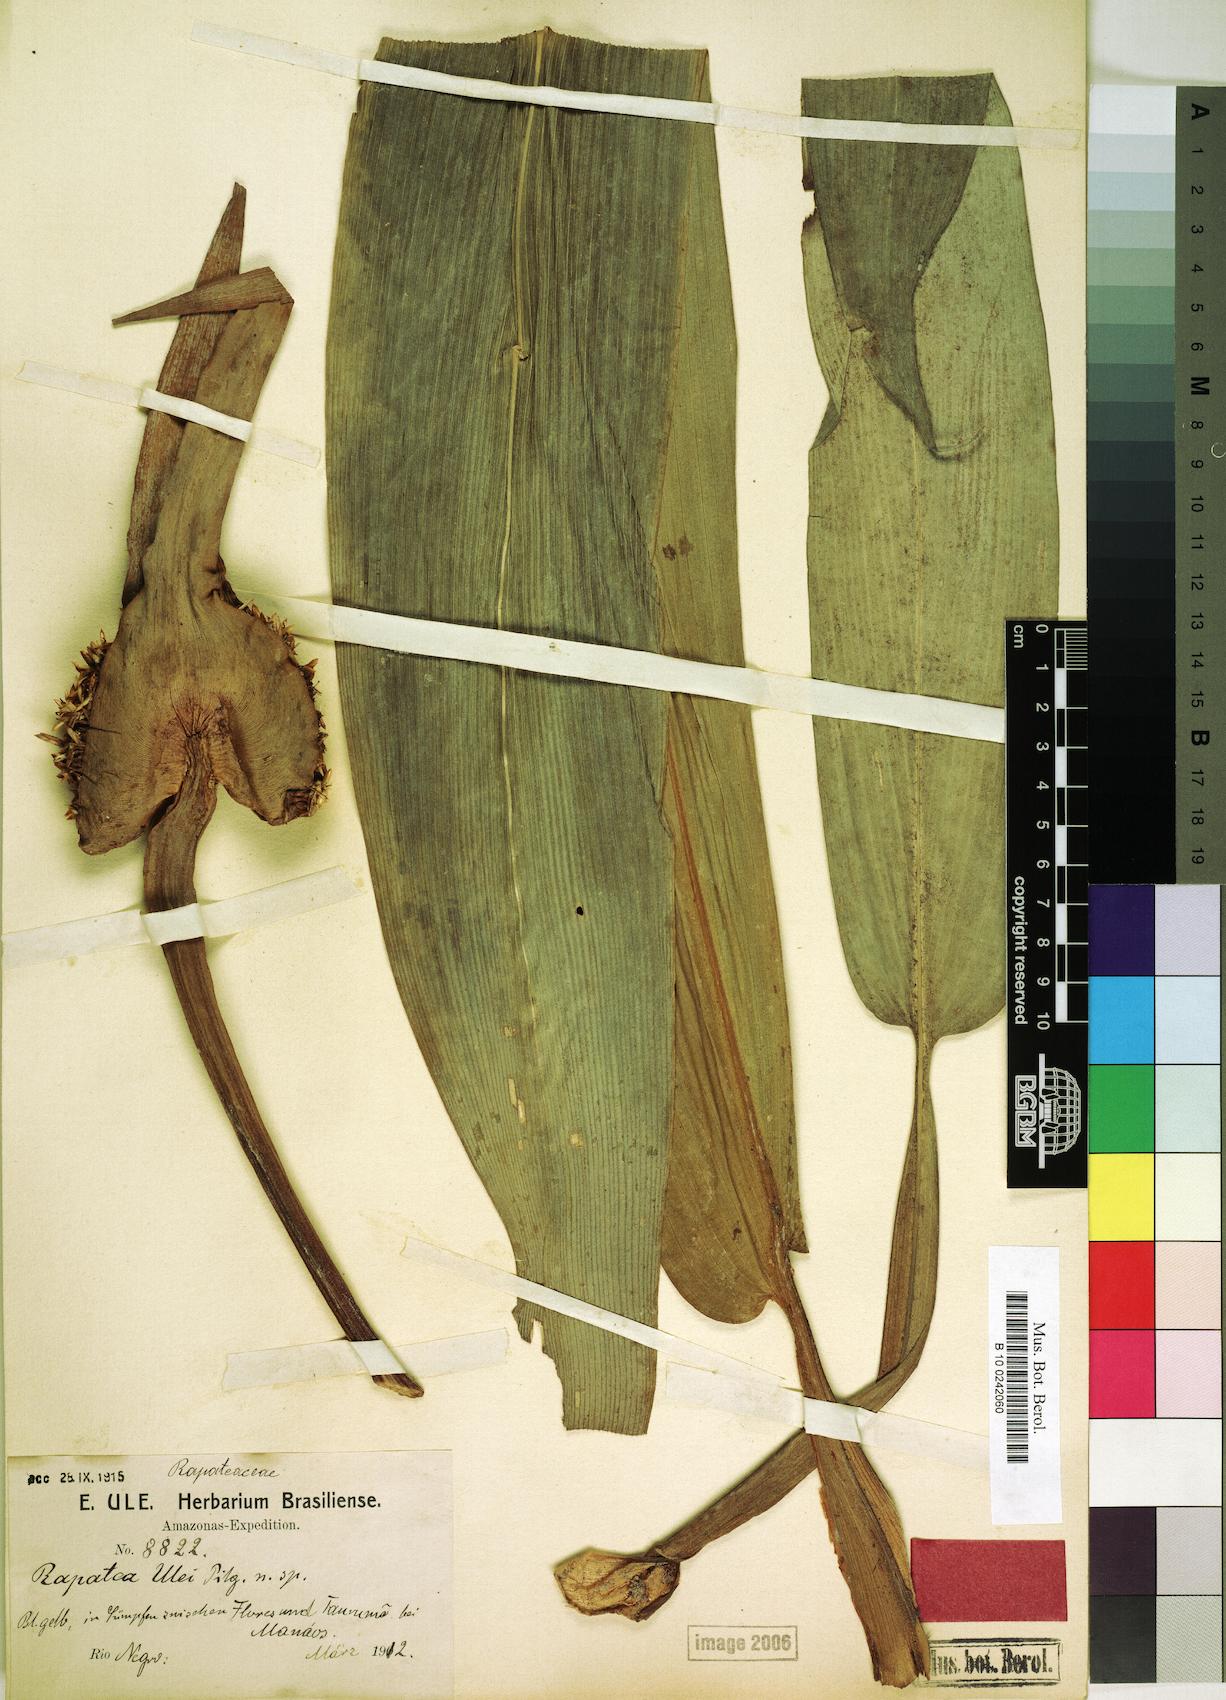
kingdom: Plantae
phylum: Tracheophyta
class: Liliopsida
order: Poales
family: Rapateaceae
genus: Rapatea
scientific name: Rapatea ulei
